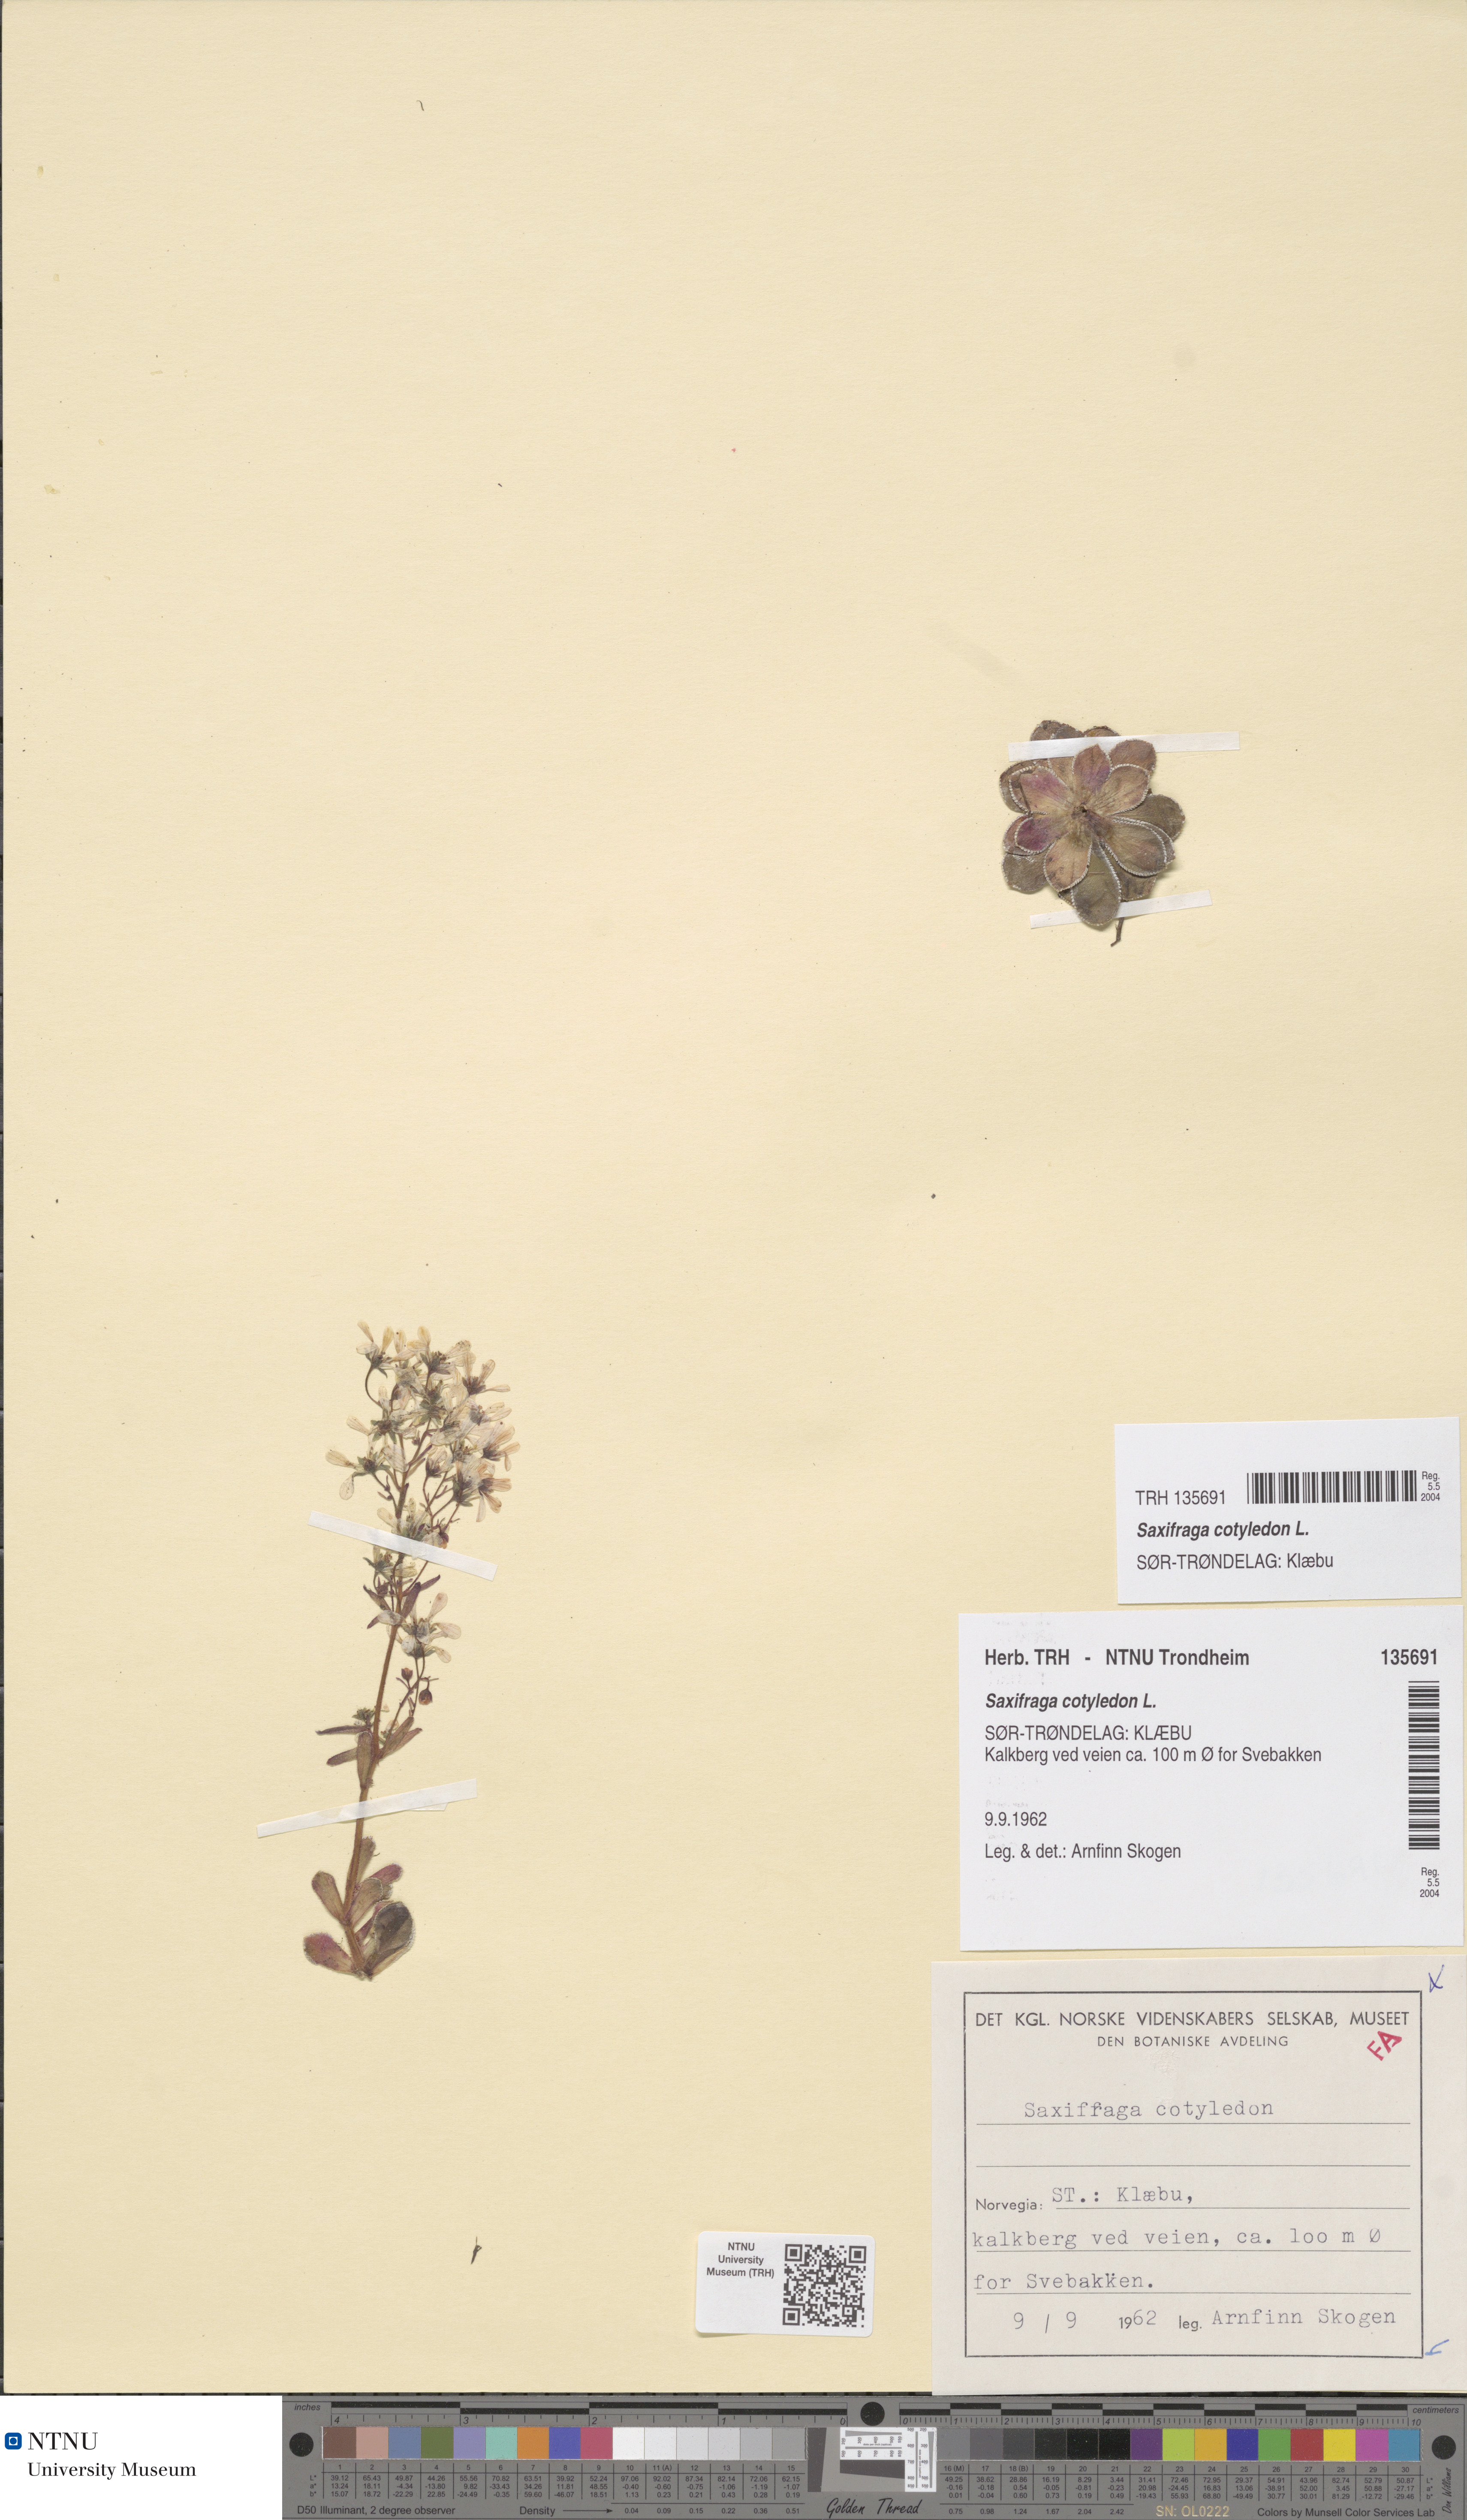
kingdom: Plantae
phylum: Tracheophyta
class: Magnoliopsida
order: Saxifragales
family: Saxifragaceae
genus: Saxifraga
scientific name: Saxifraga cotyledon
